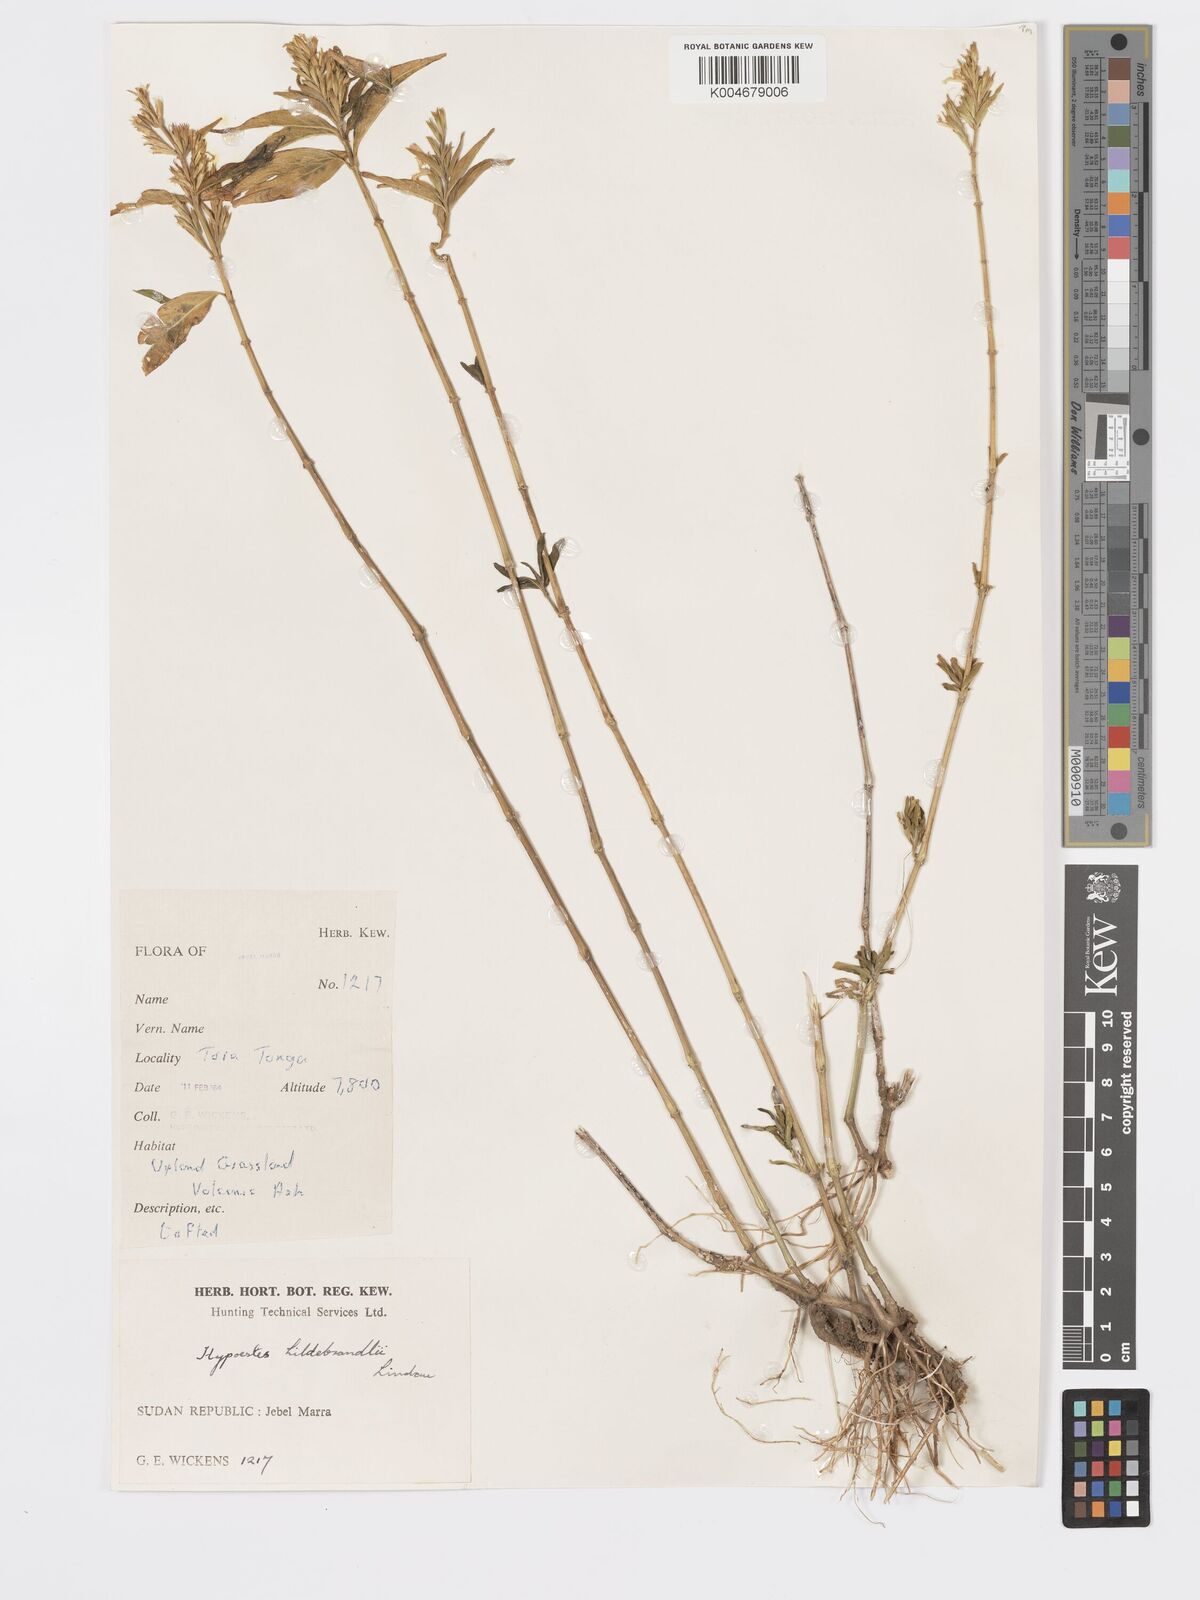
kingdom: Plantae
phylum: Tracheophyta
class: Magnoliopsida
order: Lamiales
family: Acanthaceae
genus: Hypoestes
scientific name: Hypoestes forskaolii
